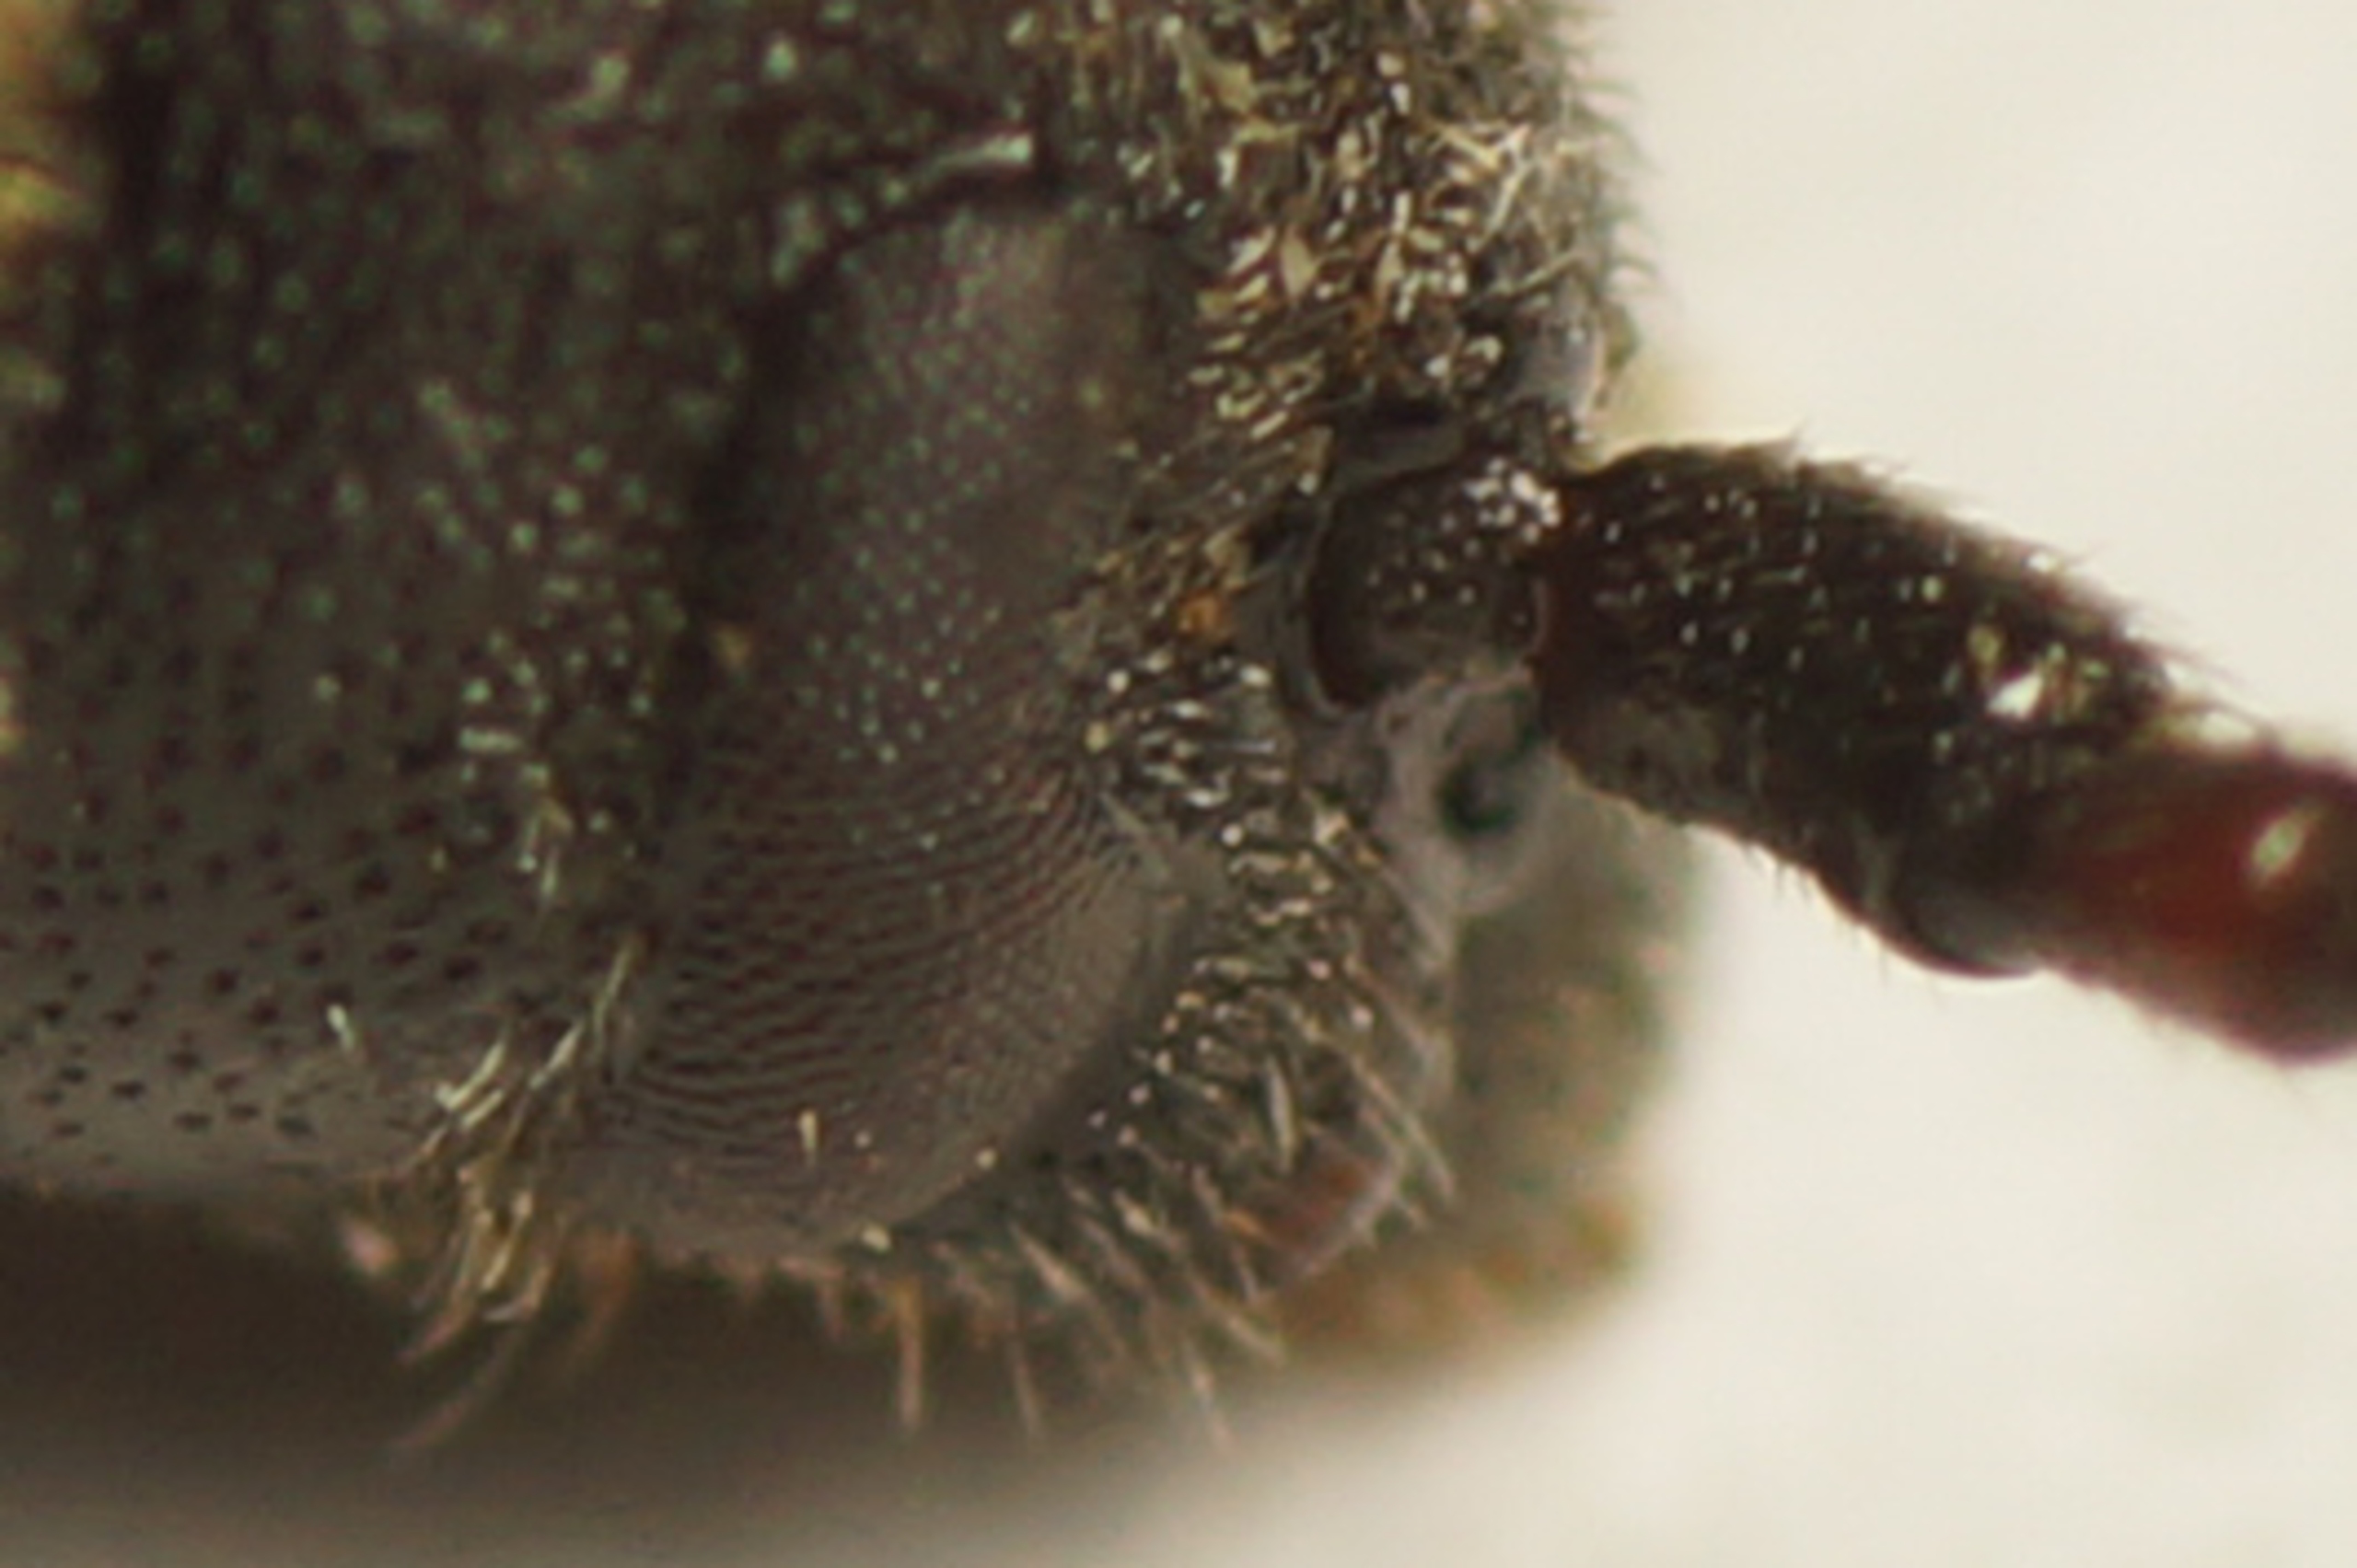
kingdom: Animalia
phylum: Arthropoda
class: Insecta
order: Coleoptera
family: Cerambycidae
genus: Asemum
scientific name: Asemum striatum
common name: Stribet barkbuk
